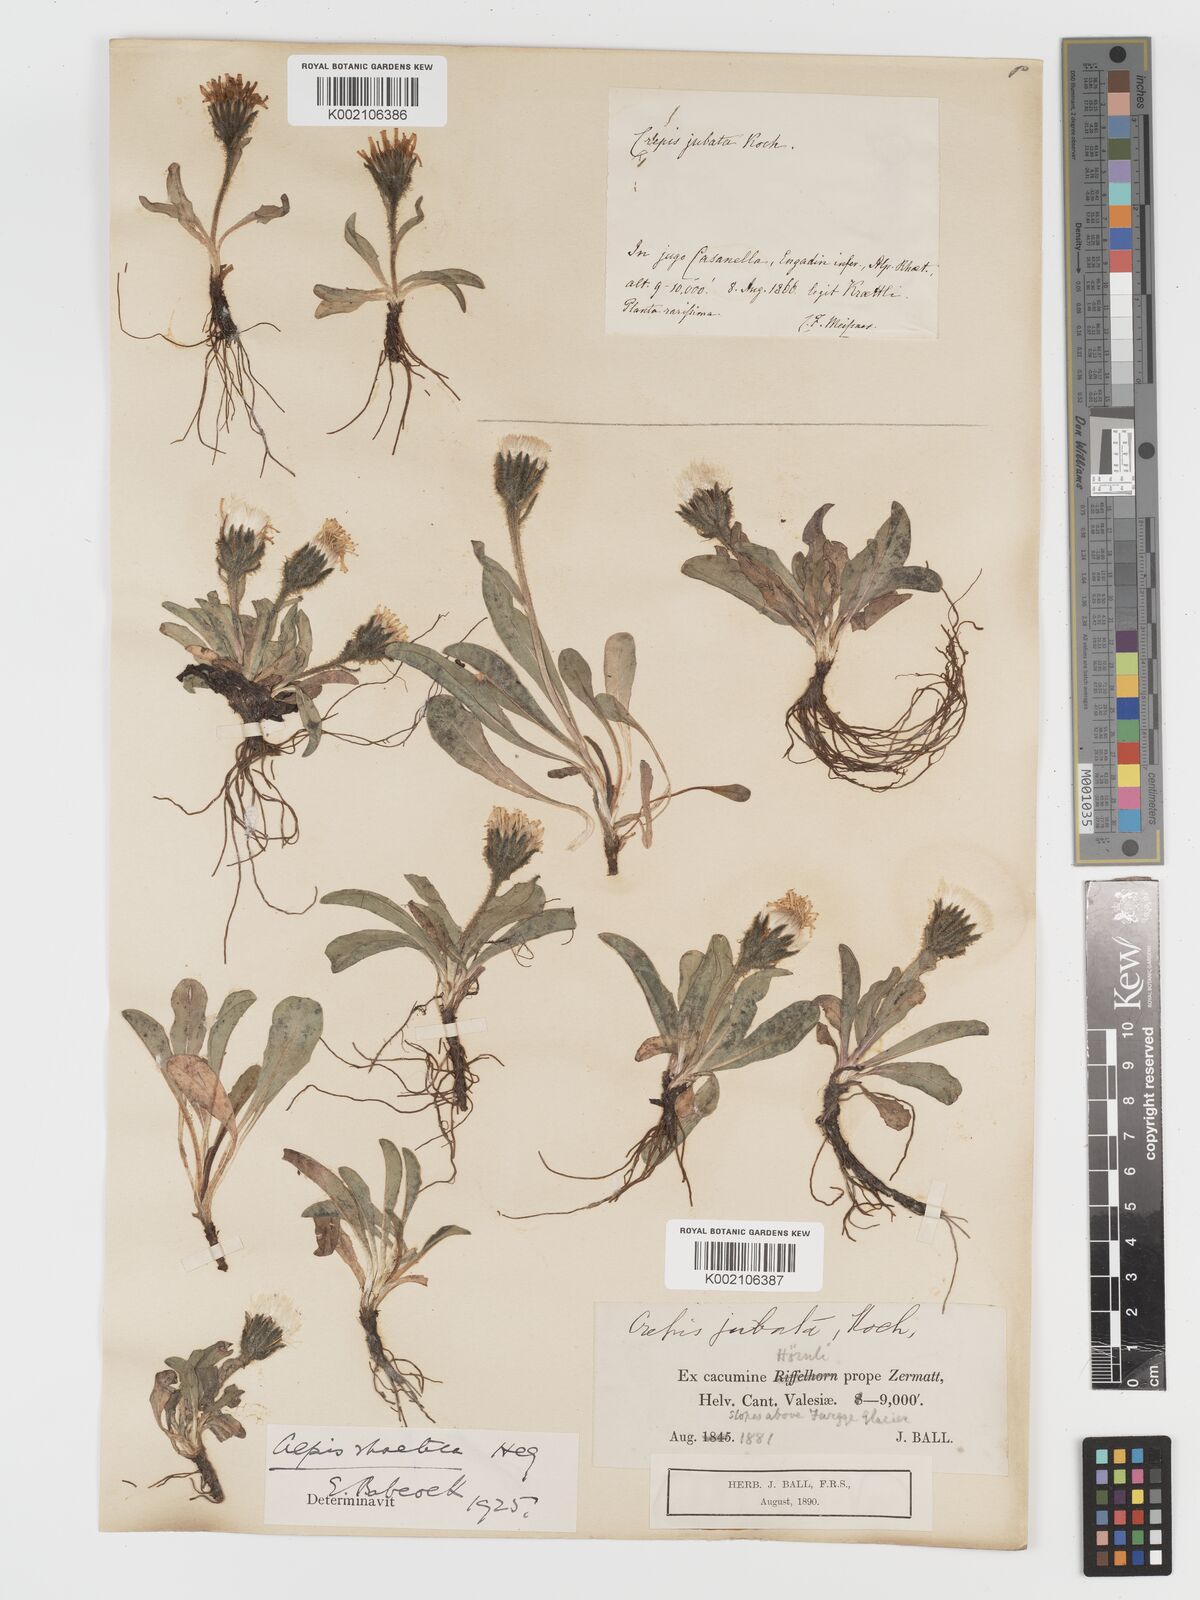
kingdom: Plantae
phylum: Tracheophyta
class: Magnoliopsida
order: Asterales
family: Asteraceae
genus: Crepis
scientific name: Crepis rhaetica
